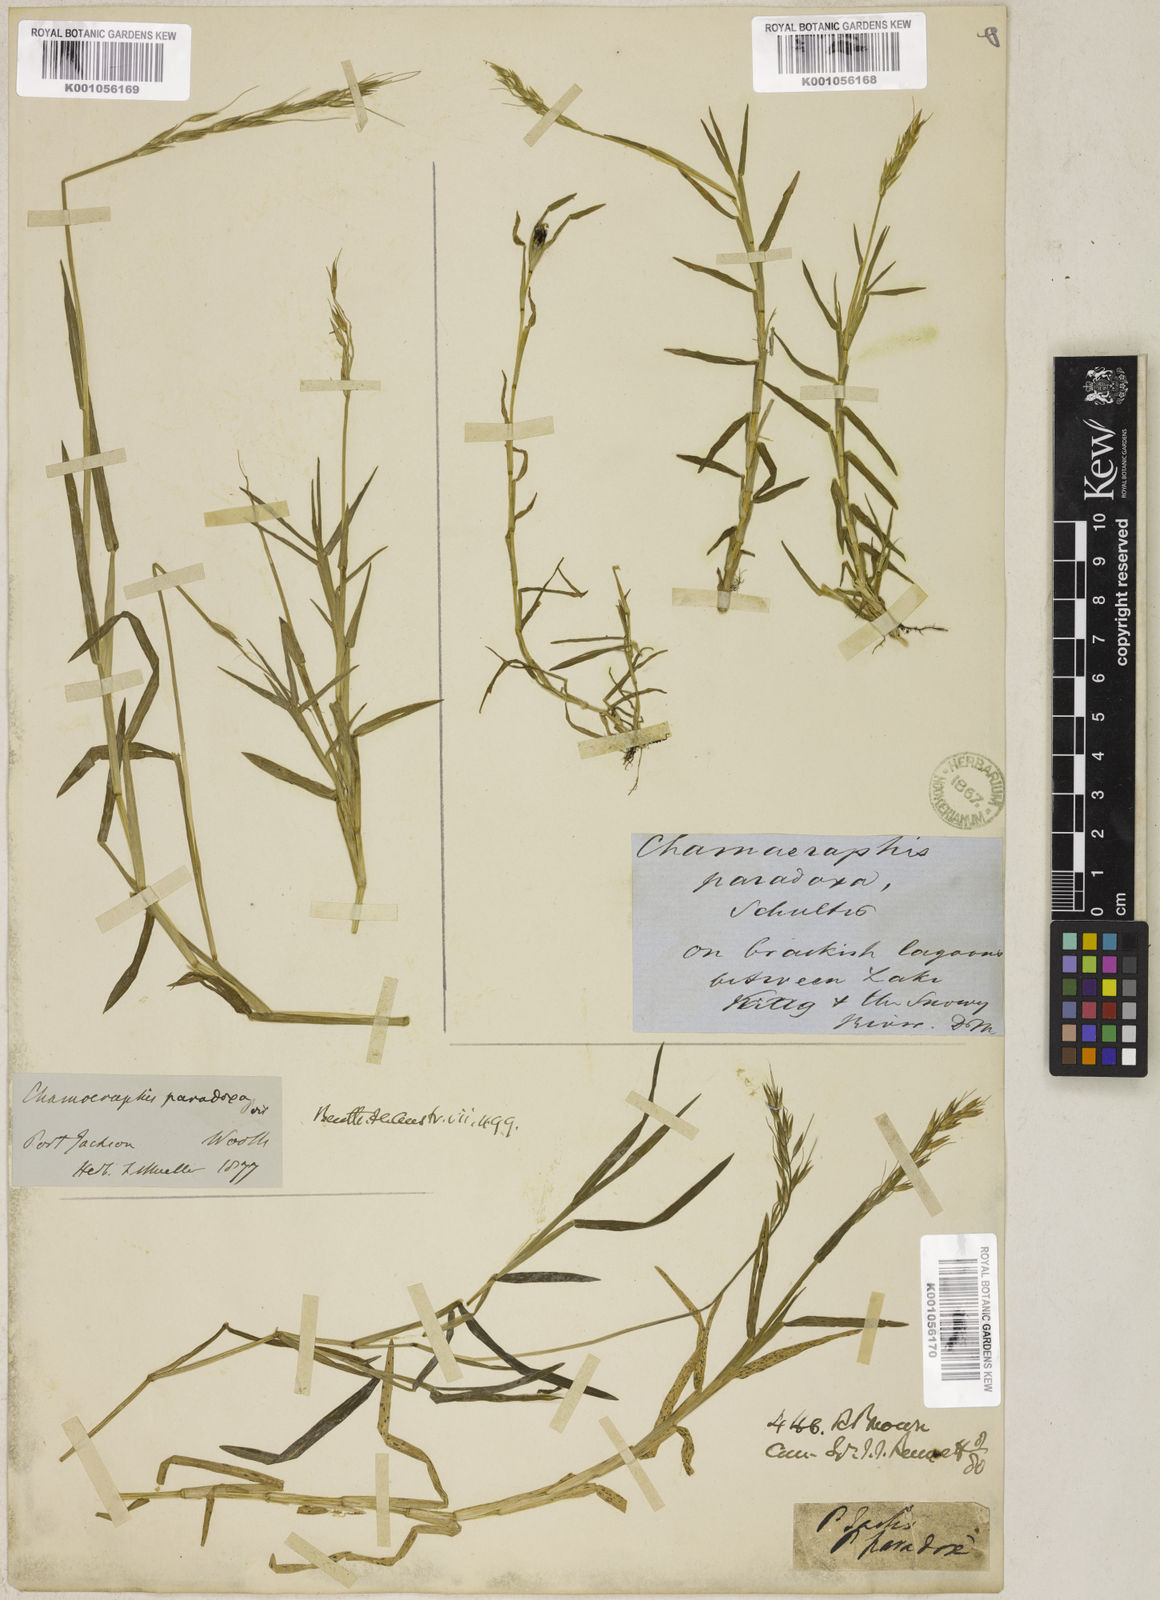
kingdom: Plantae
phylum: Tracheophyta
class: Liliopsida
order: Poales
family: Poaceae
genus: Pseudoraphis
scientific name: Pseudoraphis paradoxa
